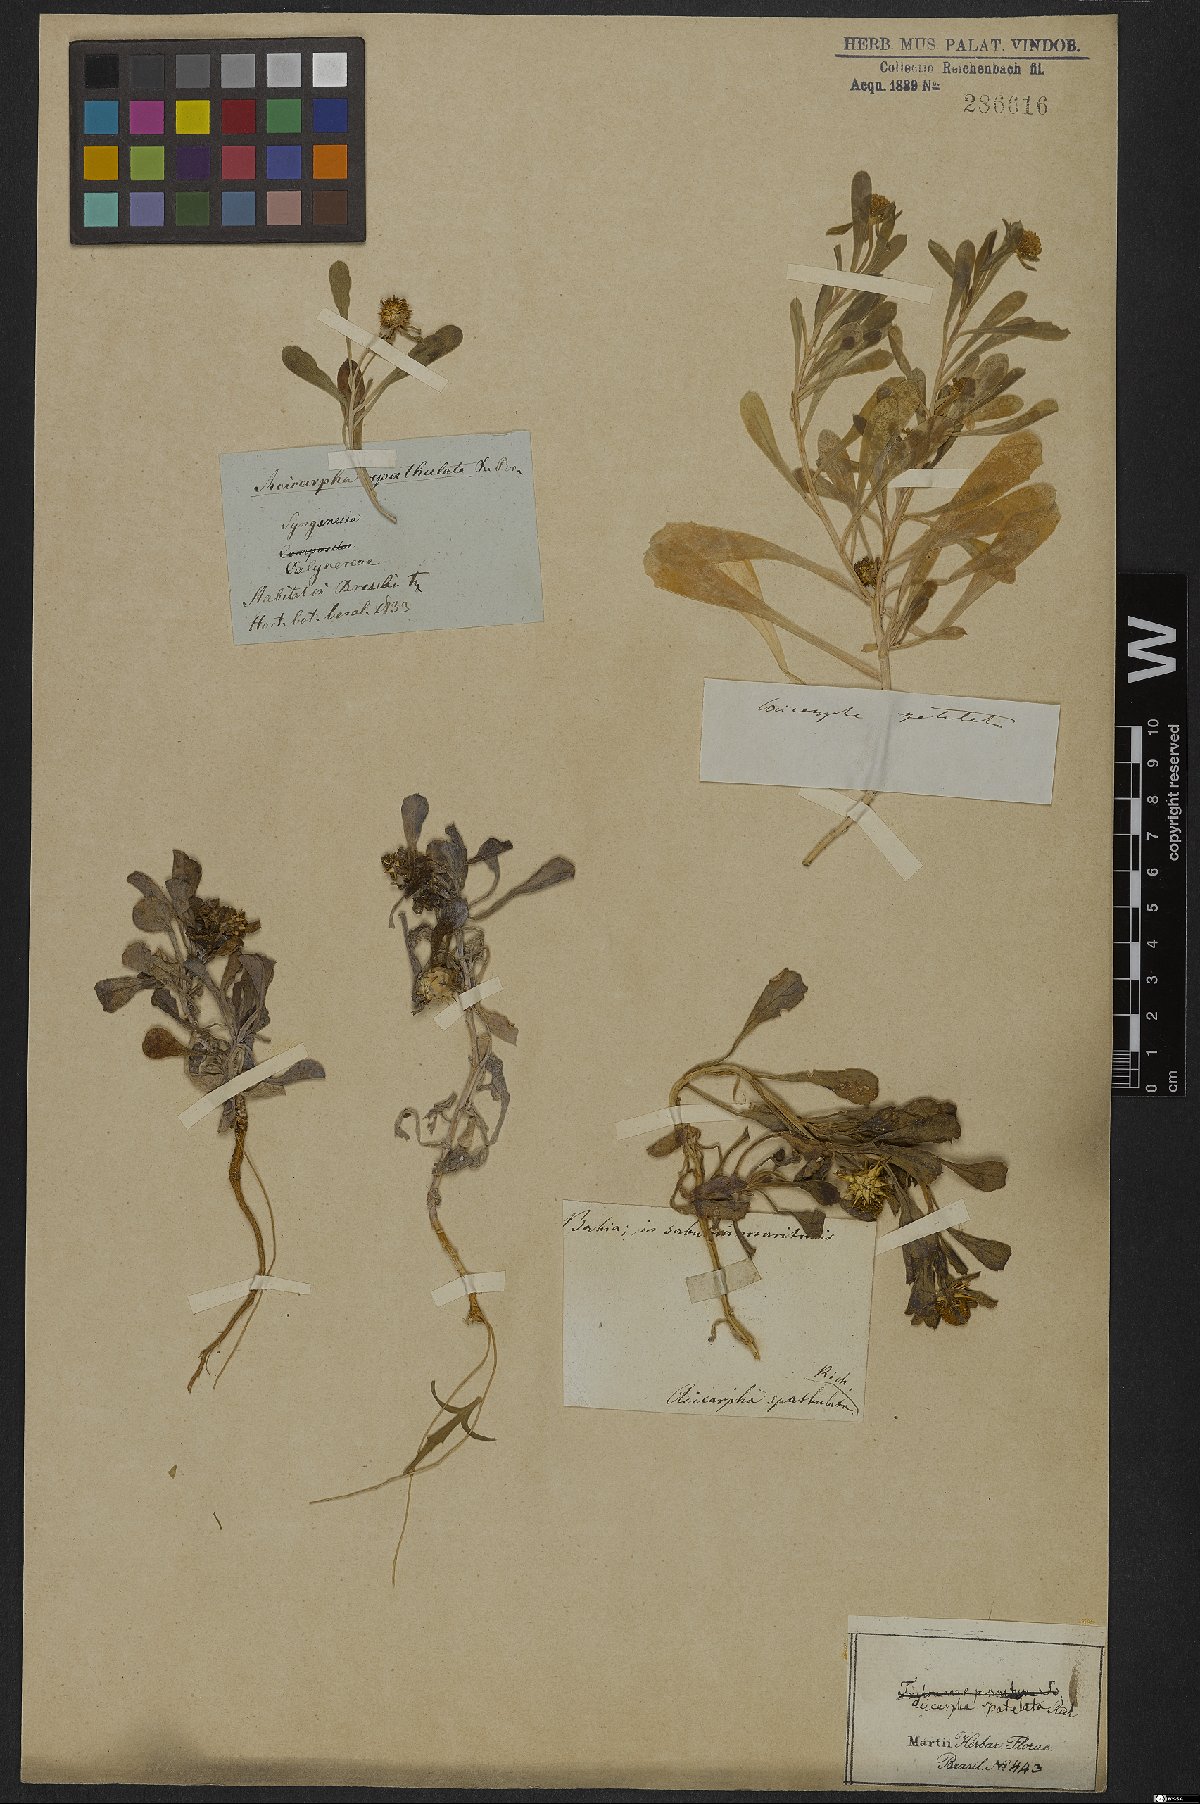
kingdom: Plantae
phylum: Tracheophyta
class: Magnoliopsida
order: Asterales
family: Calyceraceae
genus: Acicarpha
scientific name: Acicarpha spathulata
